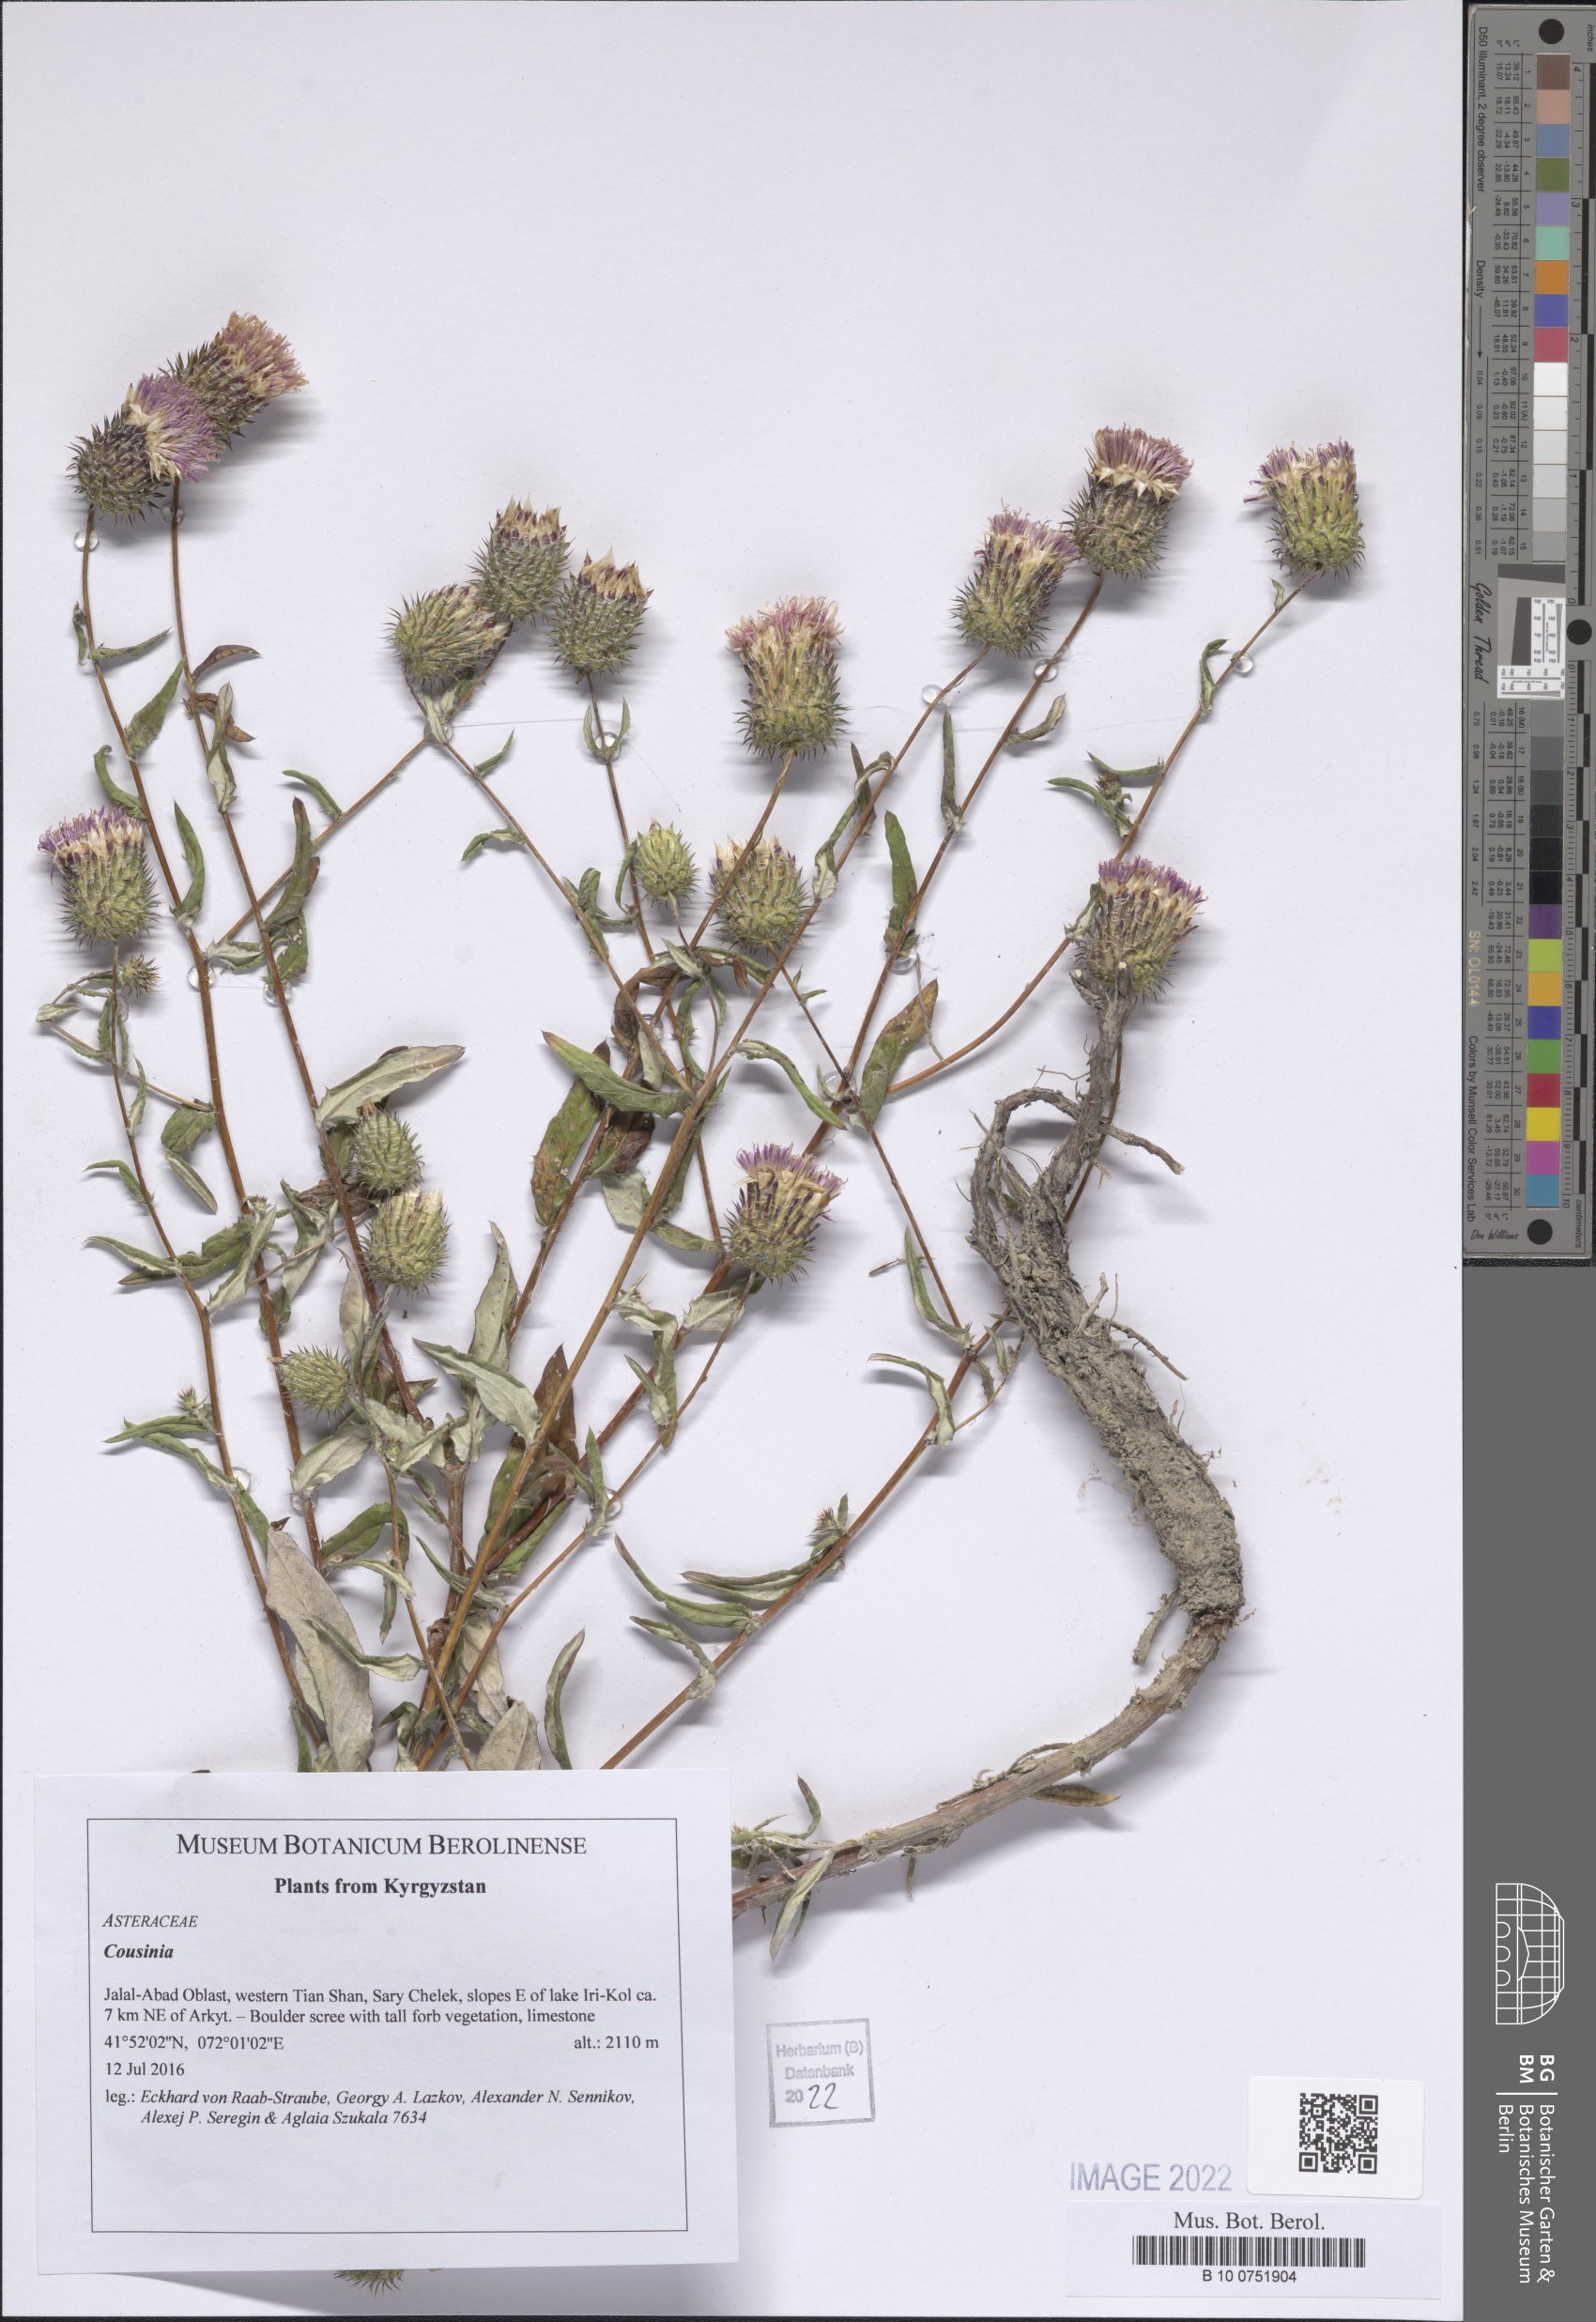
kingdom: Plantae
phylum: Tracheophyta
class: Magnoliopsida
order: Asterales
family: Asteraceae
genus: Cousinia
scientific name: Cousinia
